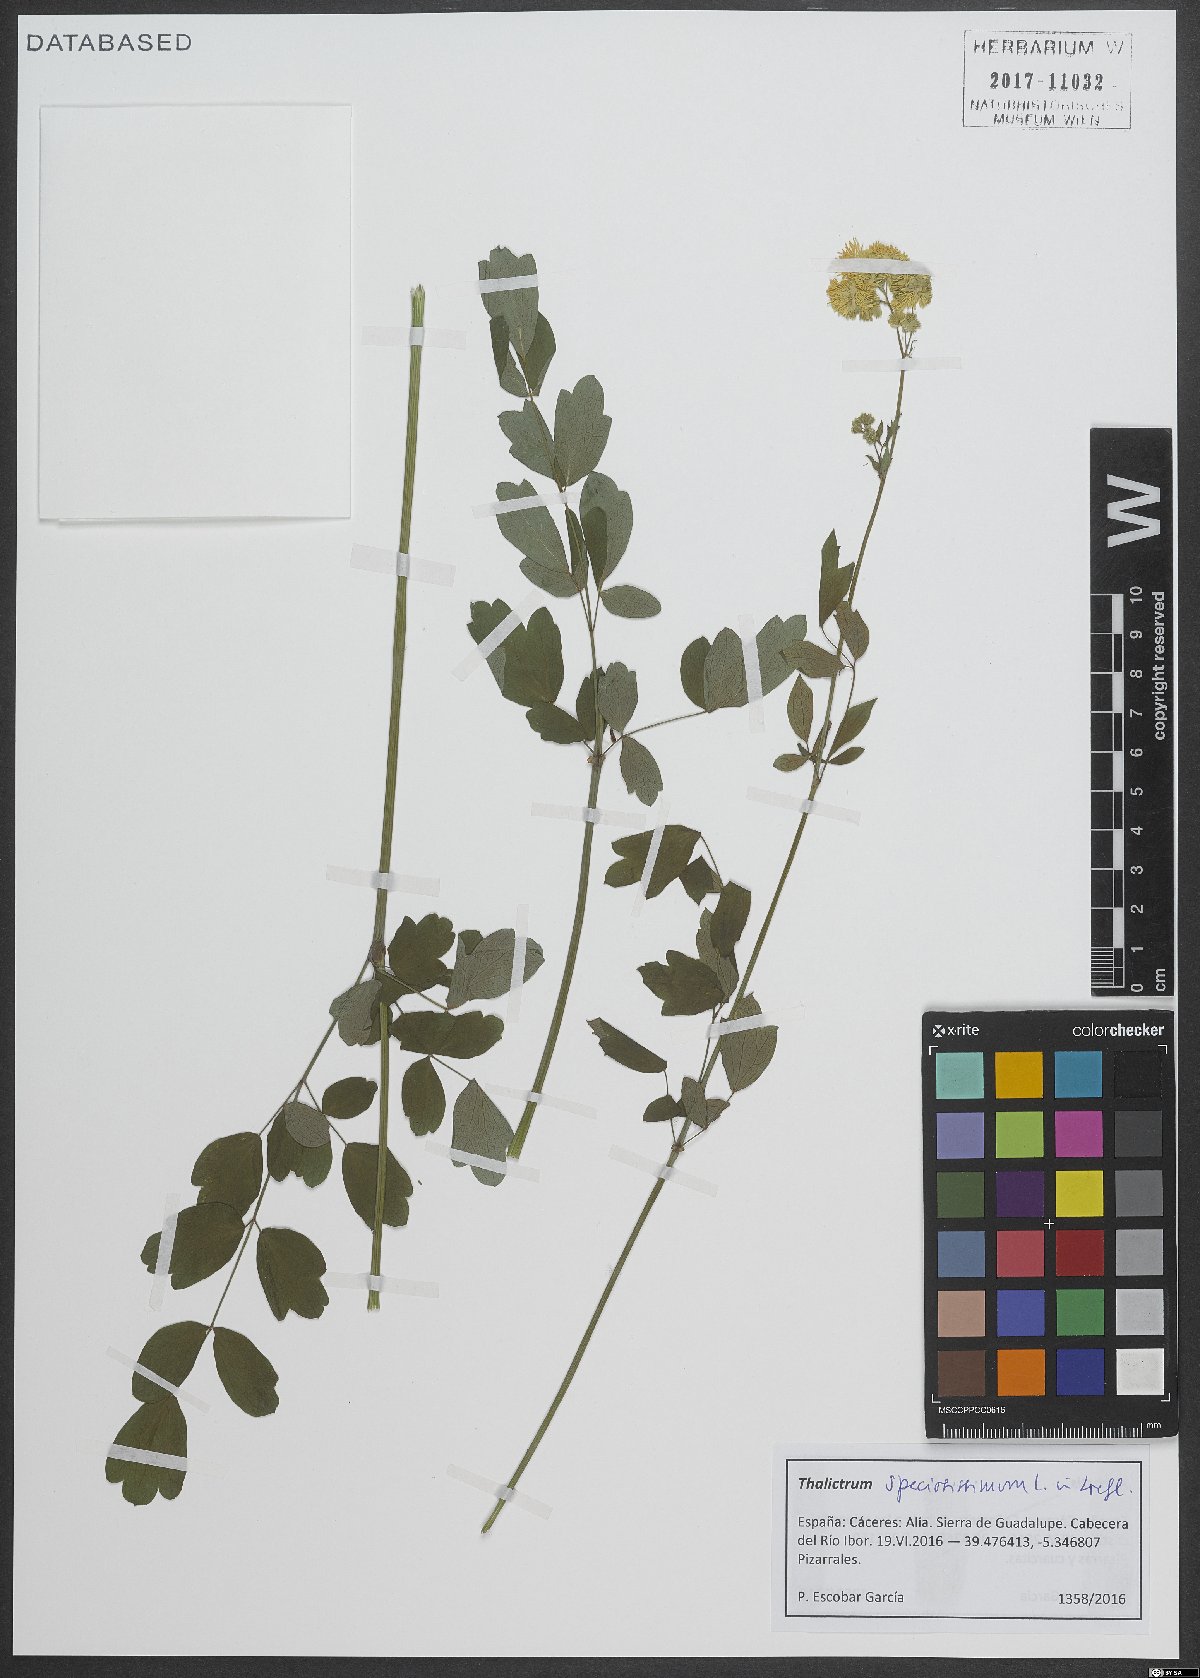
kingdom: Plantae
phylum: Tracheophyta
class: Magnoliopsida
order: Ranunculales
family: Ranunculaceae
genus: Thalictrum
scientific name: Thalictrum speciosissimum
